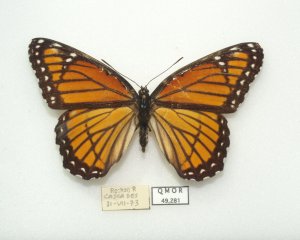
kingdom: Animalia
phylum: Arthropoda
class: Insecta
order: Lepidoptera
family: Nymphalidae
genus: Limenitis
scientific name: Limenitis archippus
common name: Viceroy
